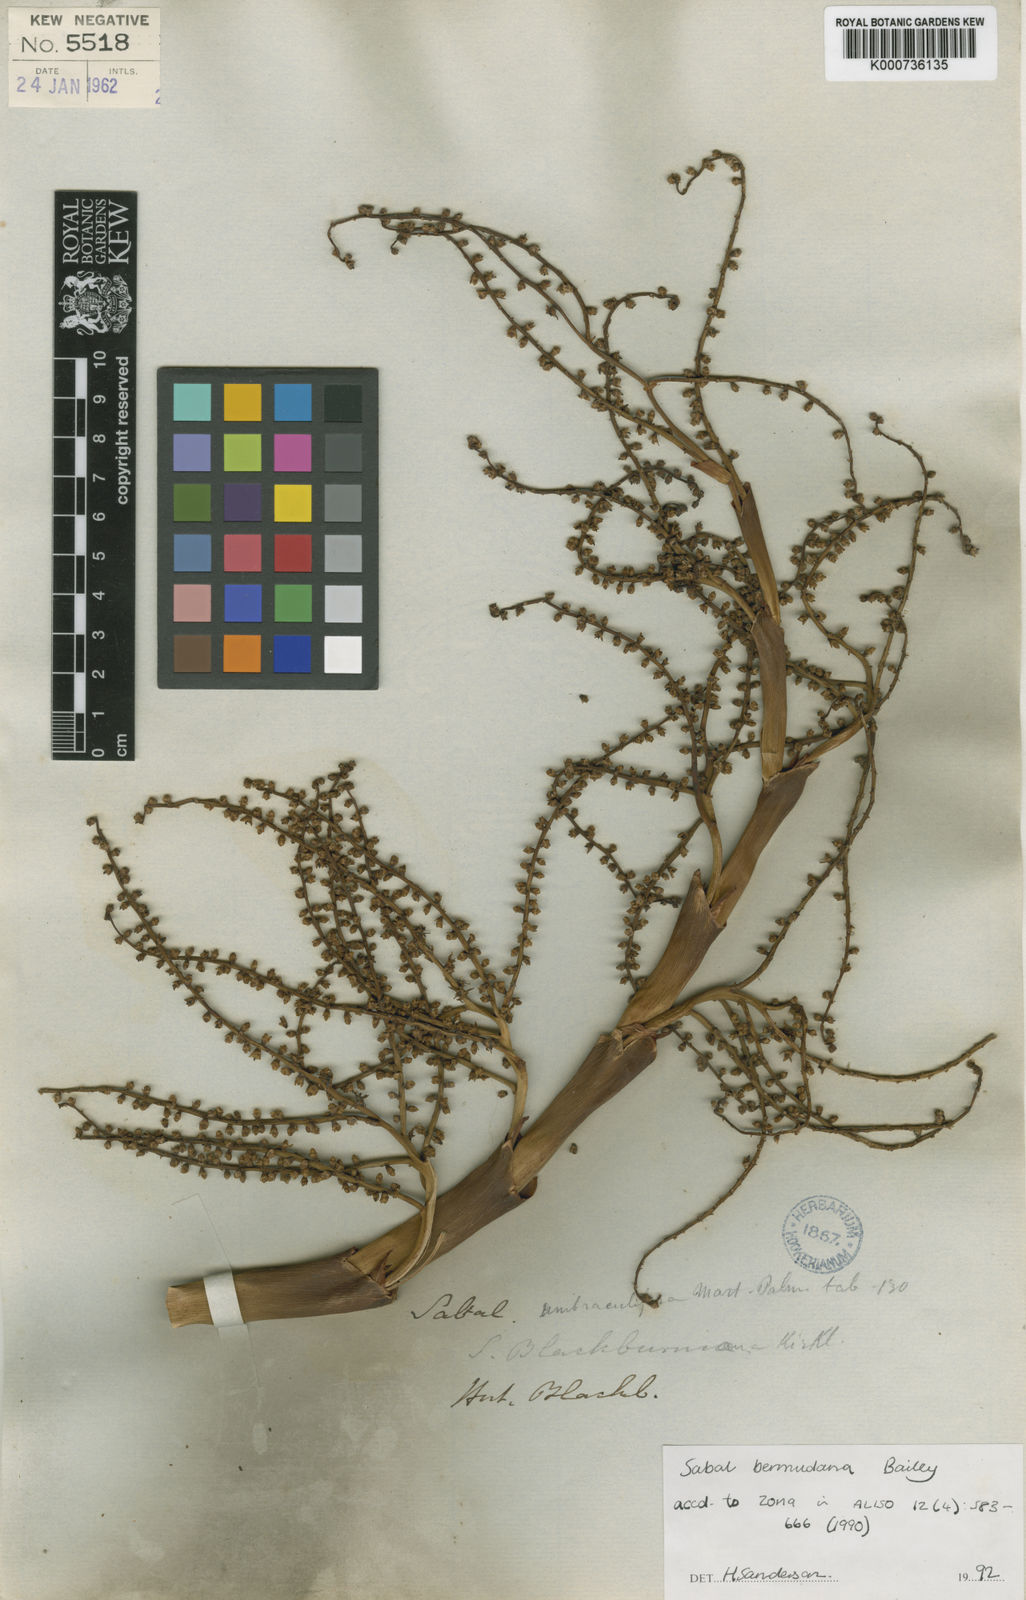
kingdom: Plantae
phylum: Tracheophyta
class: Liliopsida
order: Arecales
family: Arecaceae
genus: Sabal
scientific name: Sabal bermudana
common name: Bermuda palm
